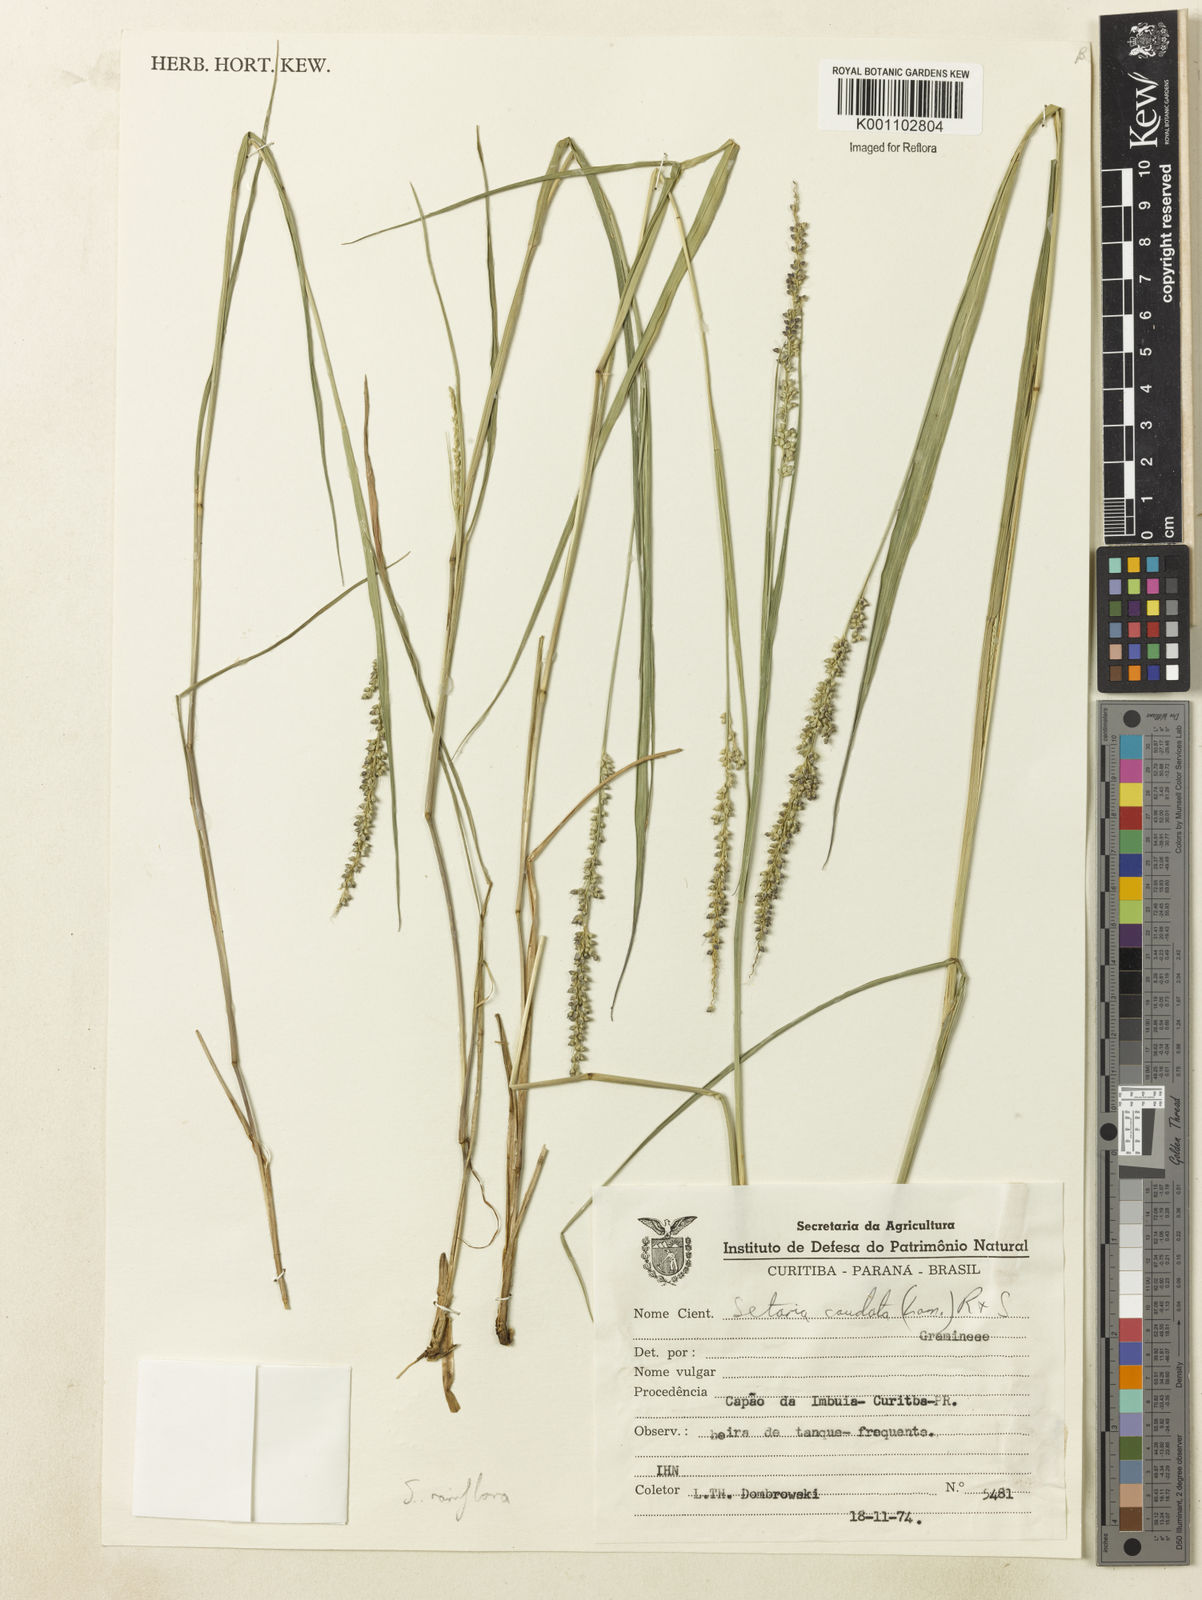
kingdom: Plantae
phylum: Tracheophyta
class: Liliopsida
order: Poales
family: Poaceae
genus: Setaria
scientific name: Setaria setosa
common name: West indies bristle grass
